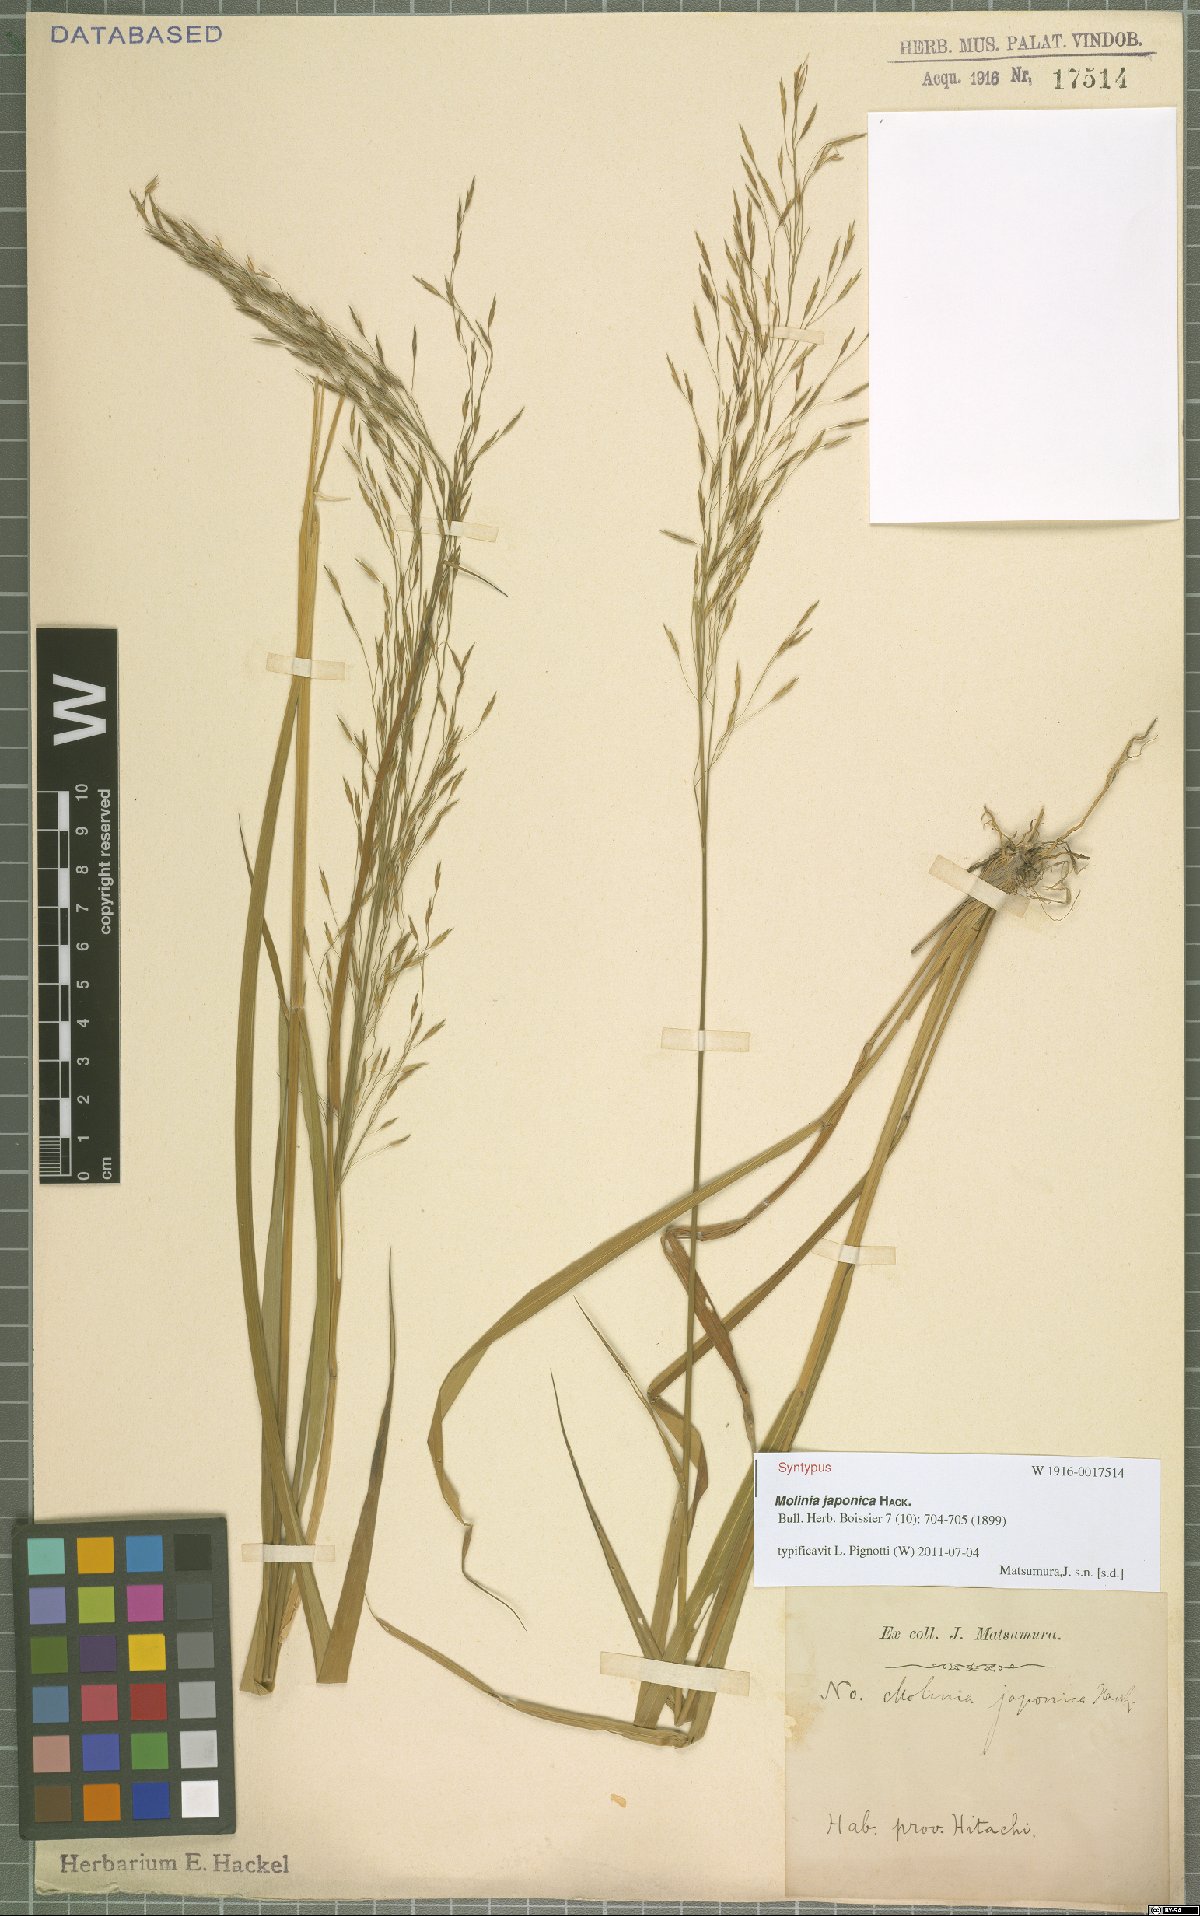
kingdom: Plantae
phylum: Tracheophyta
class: Liliopsida
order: Poales
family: Poaceae
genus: Moliniopsis
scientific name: Moliniopsis japonica
